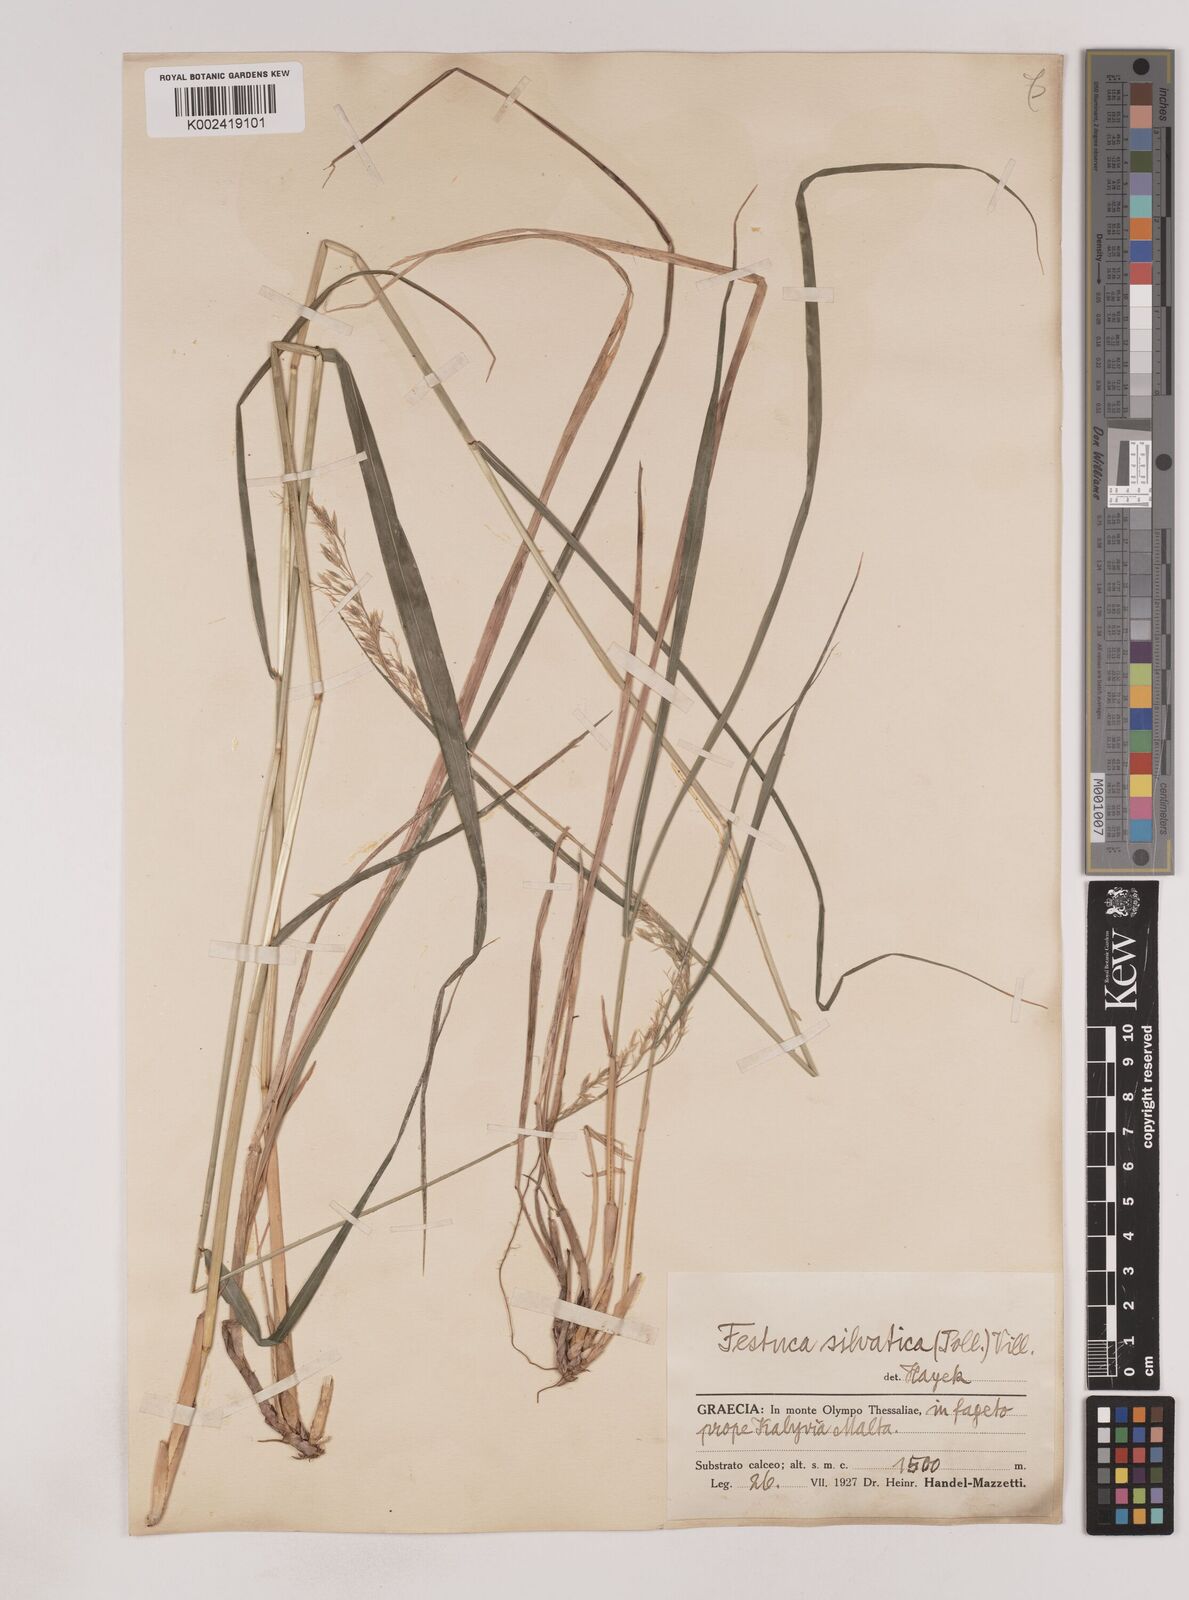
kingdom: Plantae
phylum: Tracheophyta
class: Liliopsida
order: Poales
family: Poaceae
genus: Festuca
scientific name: Festuca drymeja
